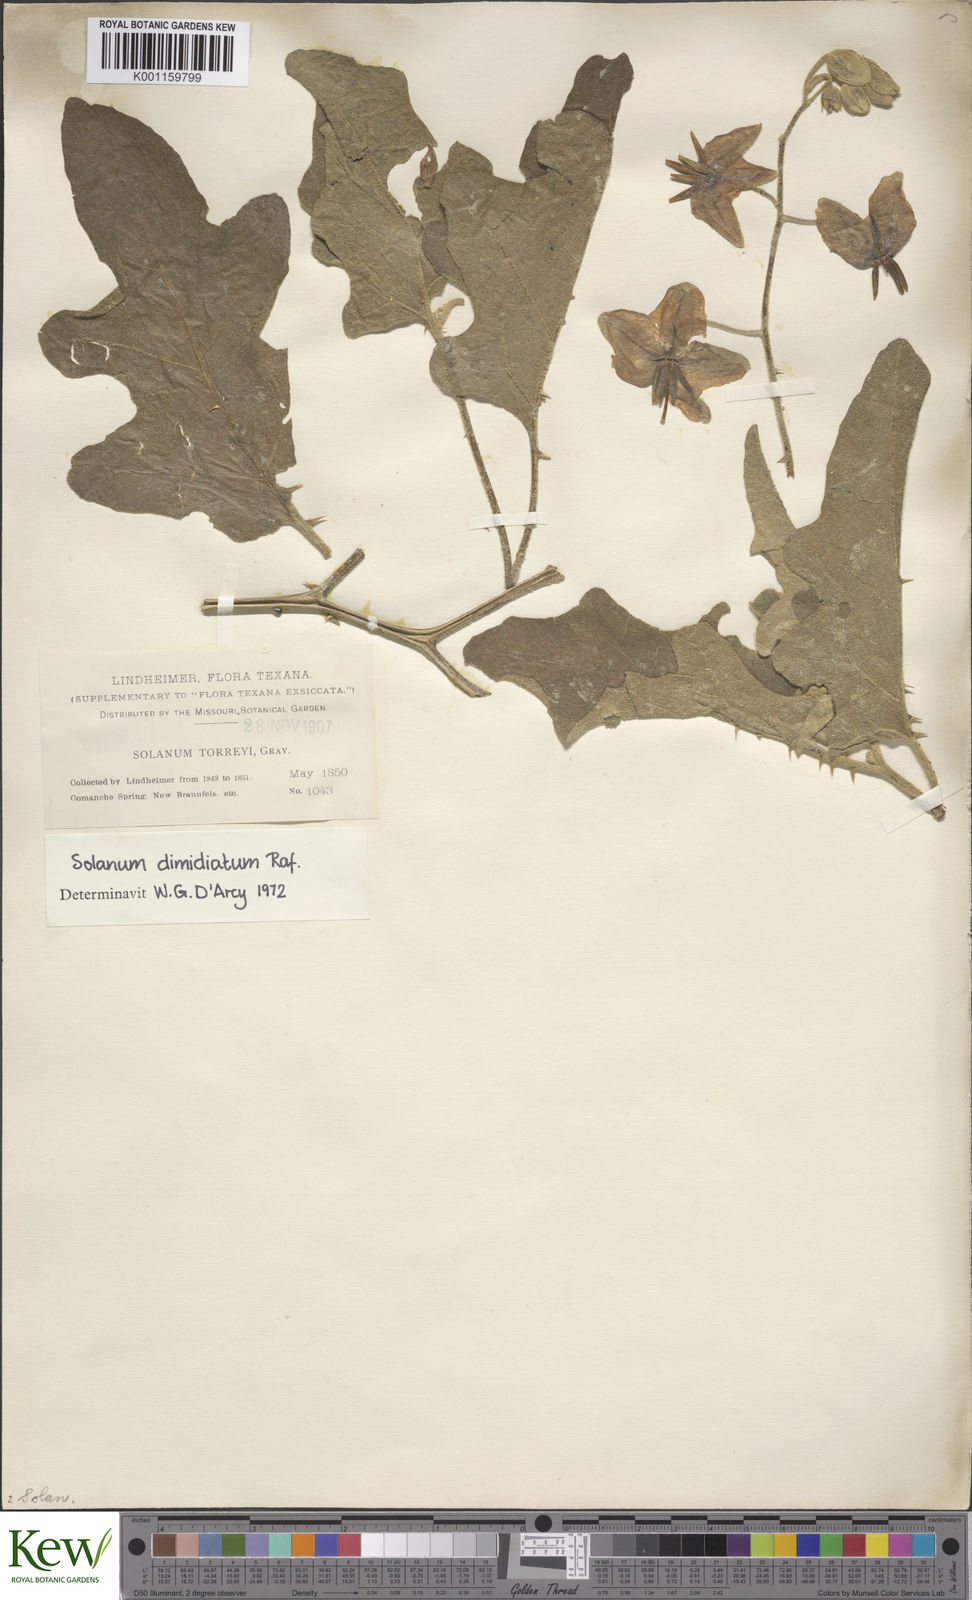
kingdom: Plantae
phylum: Tracheophyta
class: Magnoliopsida
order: Solanales
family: Solanaceae
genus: Solanum
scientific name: Solanum
